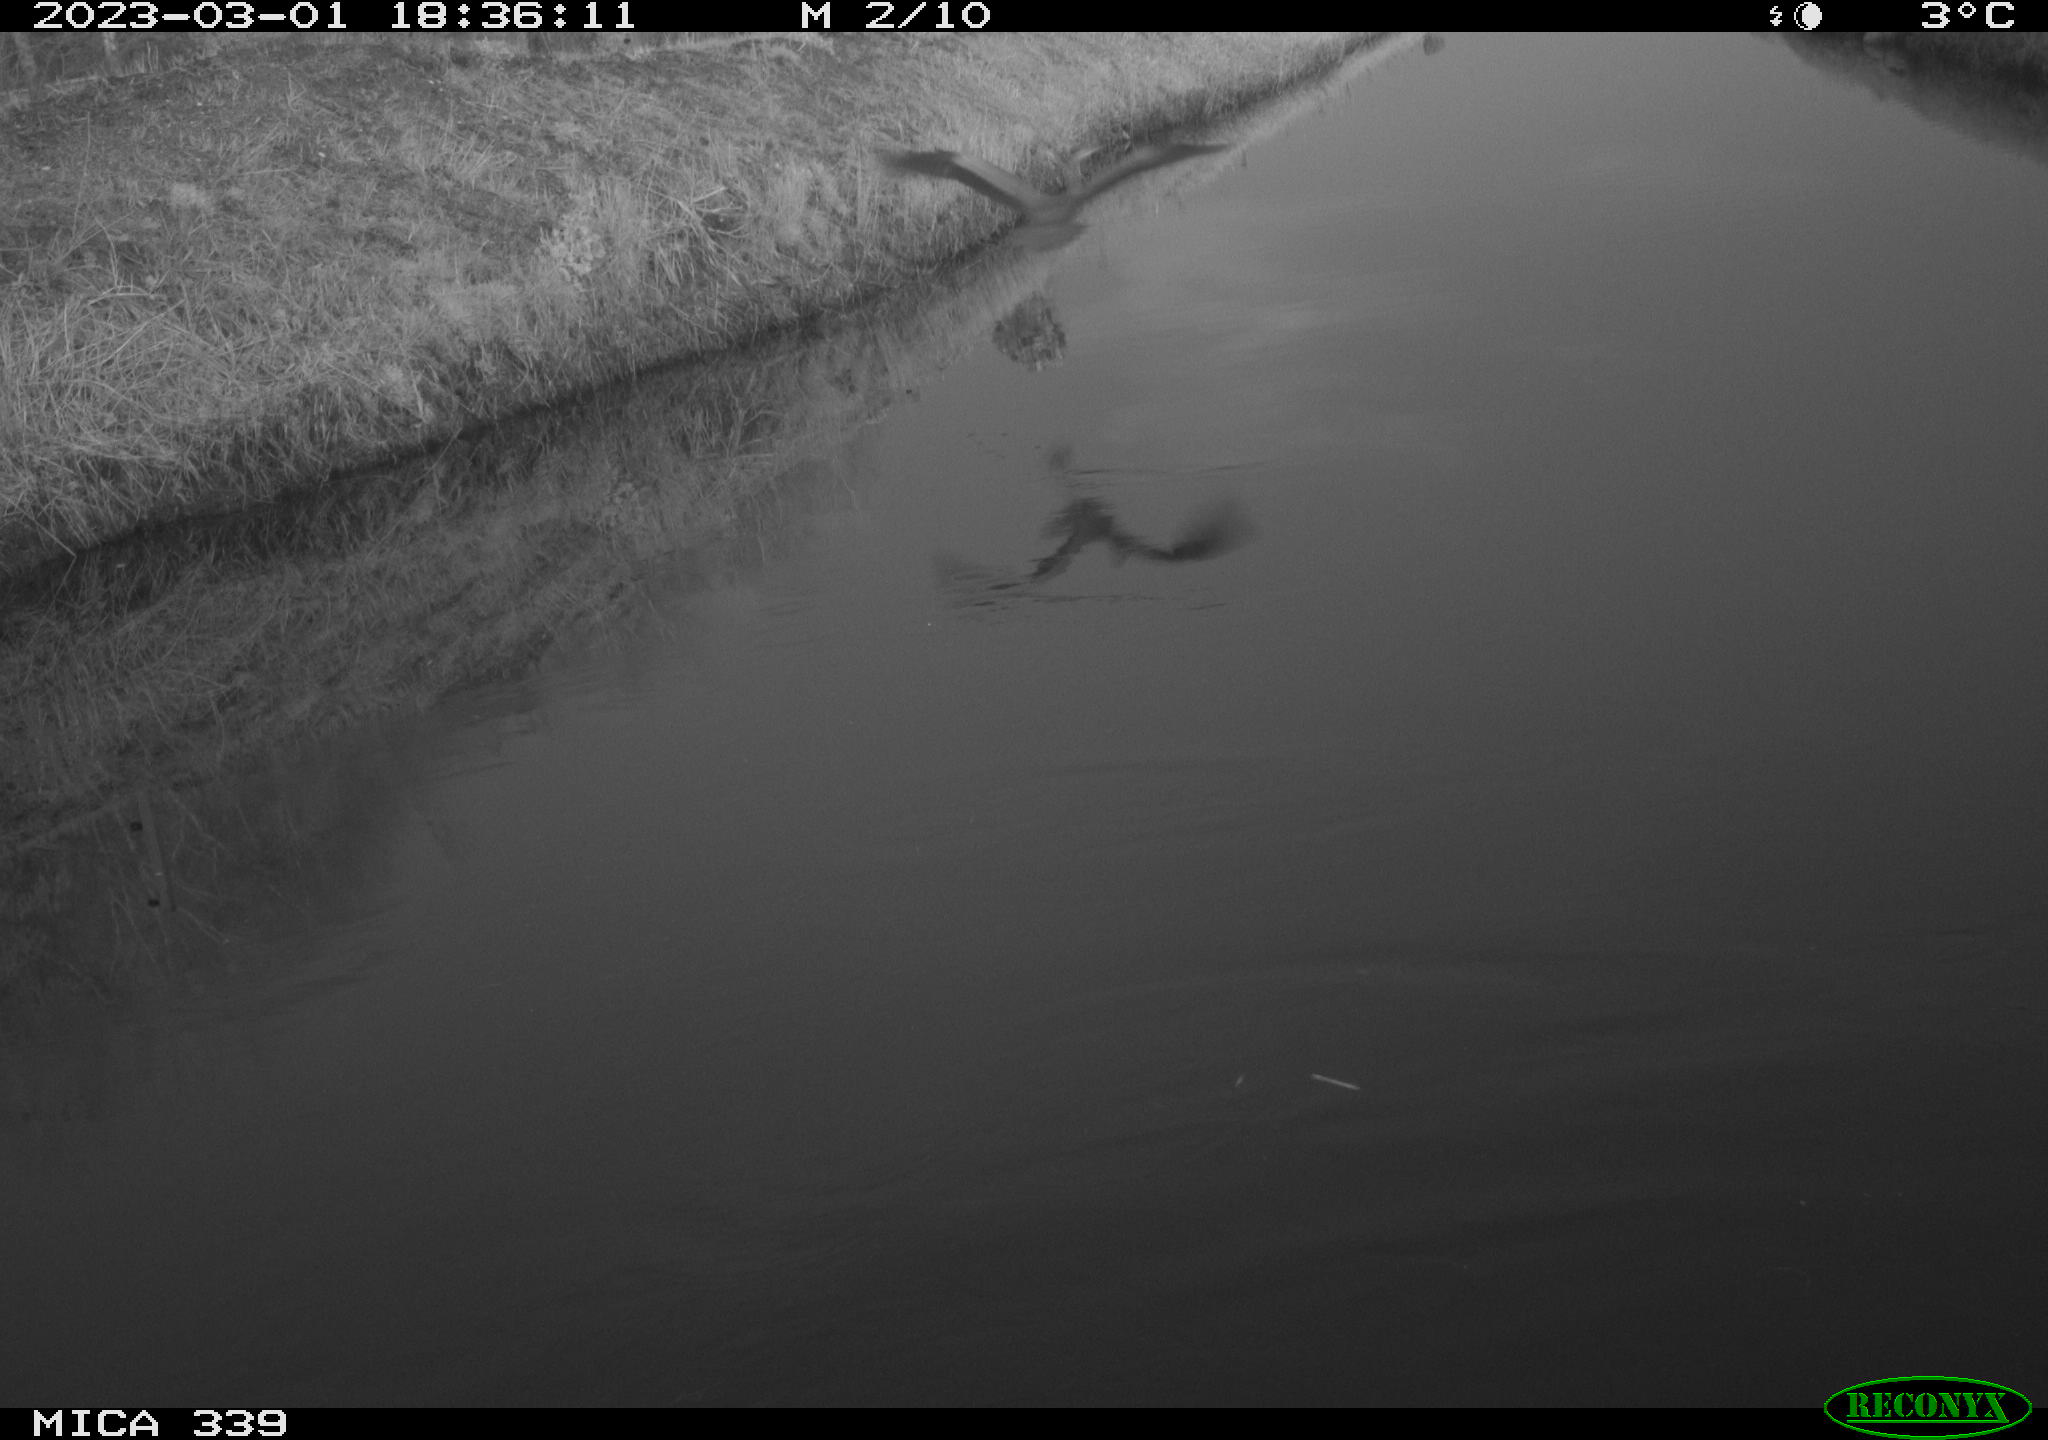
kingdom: Animalia
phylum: Chordata
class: Aves
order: Pelecaniformes
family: Ardeidae
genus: Ardea
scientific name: Ardea cinerea
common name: Grey heron
